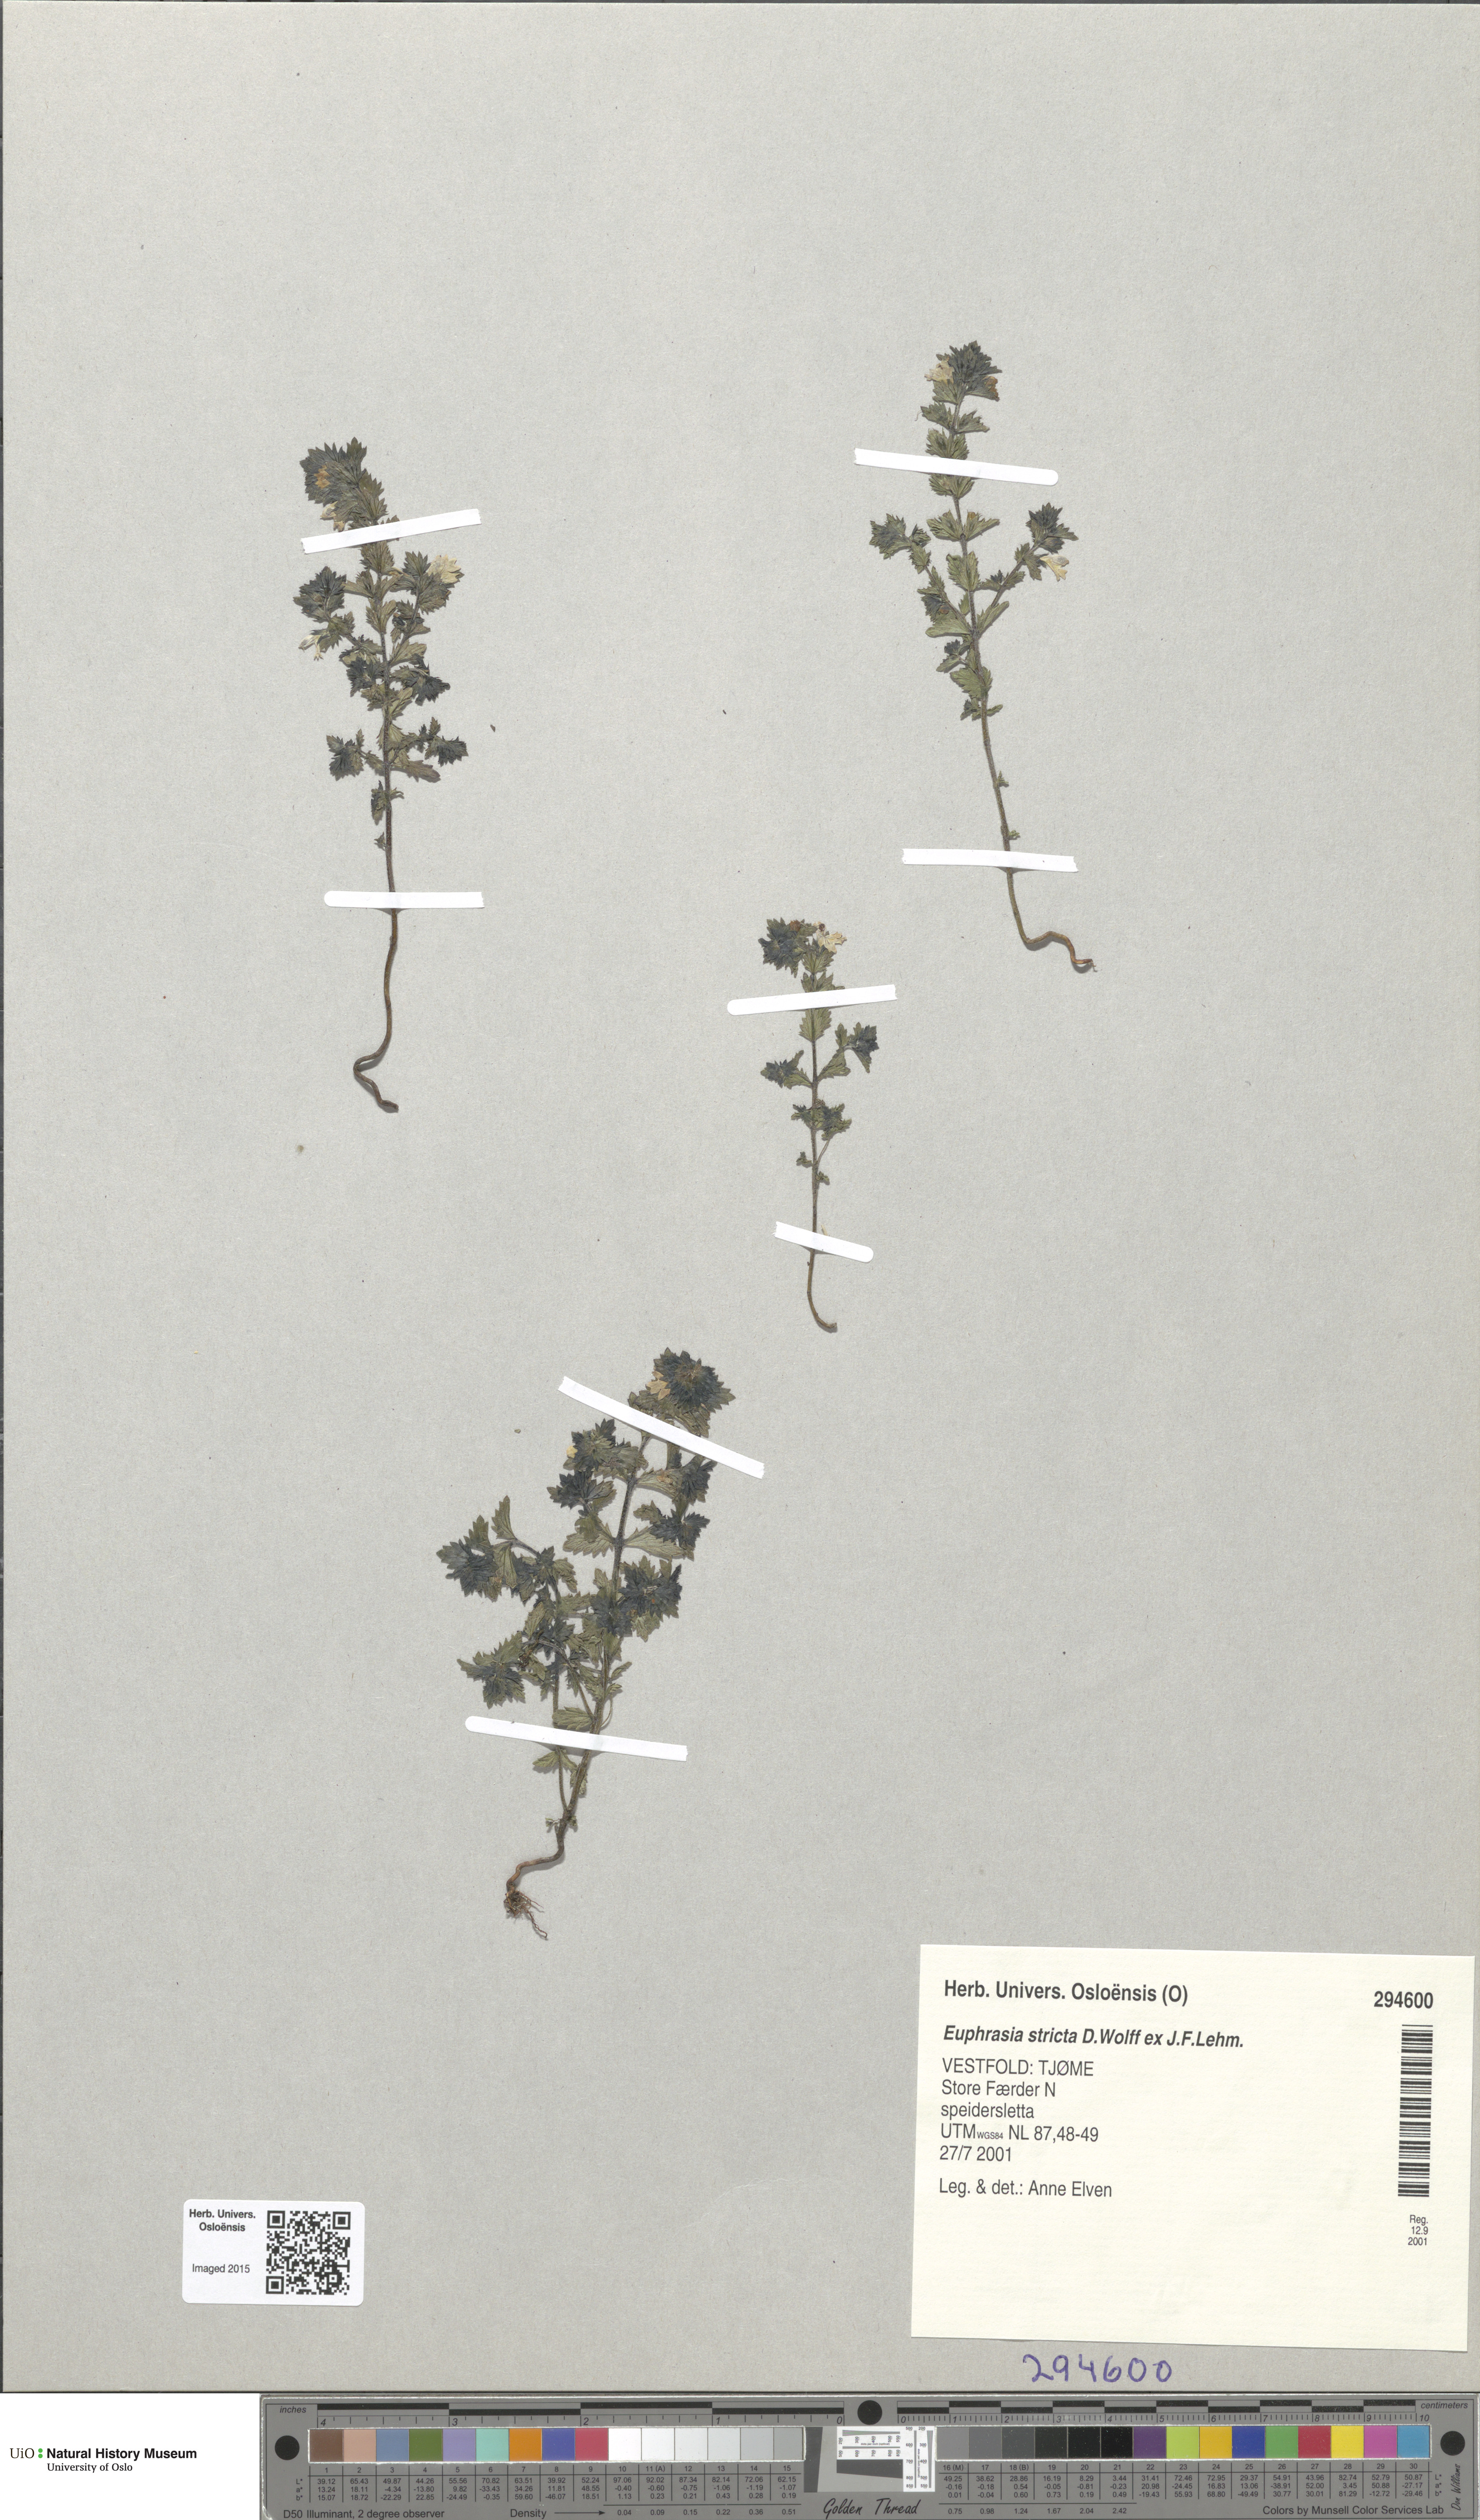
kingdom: Plantae
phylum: Tracheophyta
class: Magnoliopsida
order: Lamiales
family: Orobanchaceae
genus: Euphrasia
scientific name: Euphrasia stricta
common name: Drug eyebright
